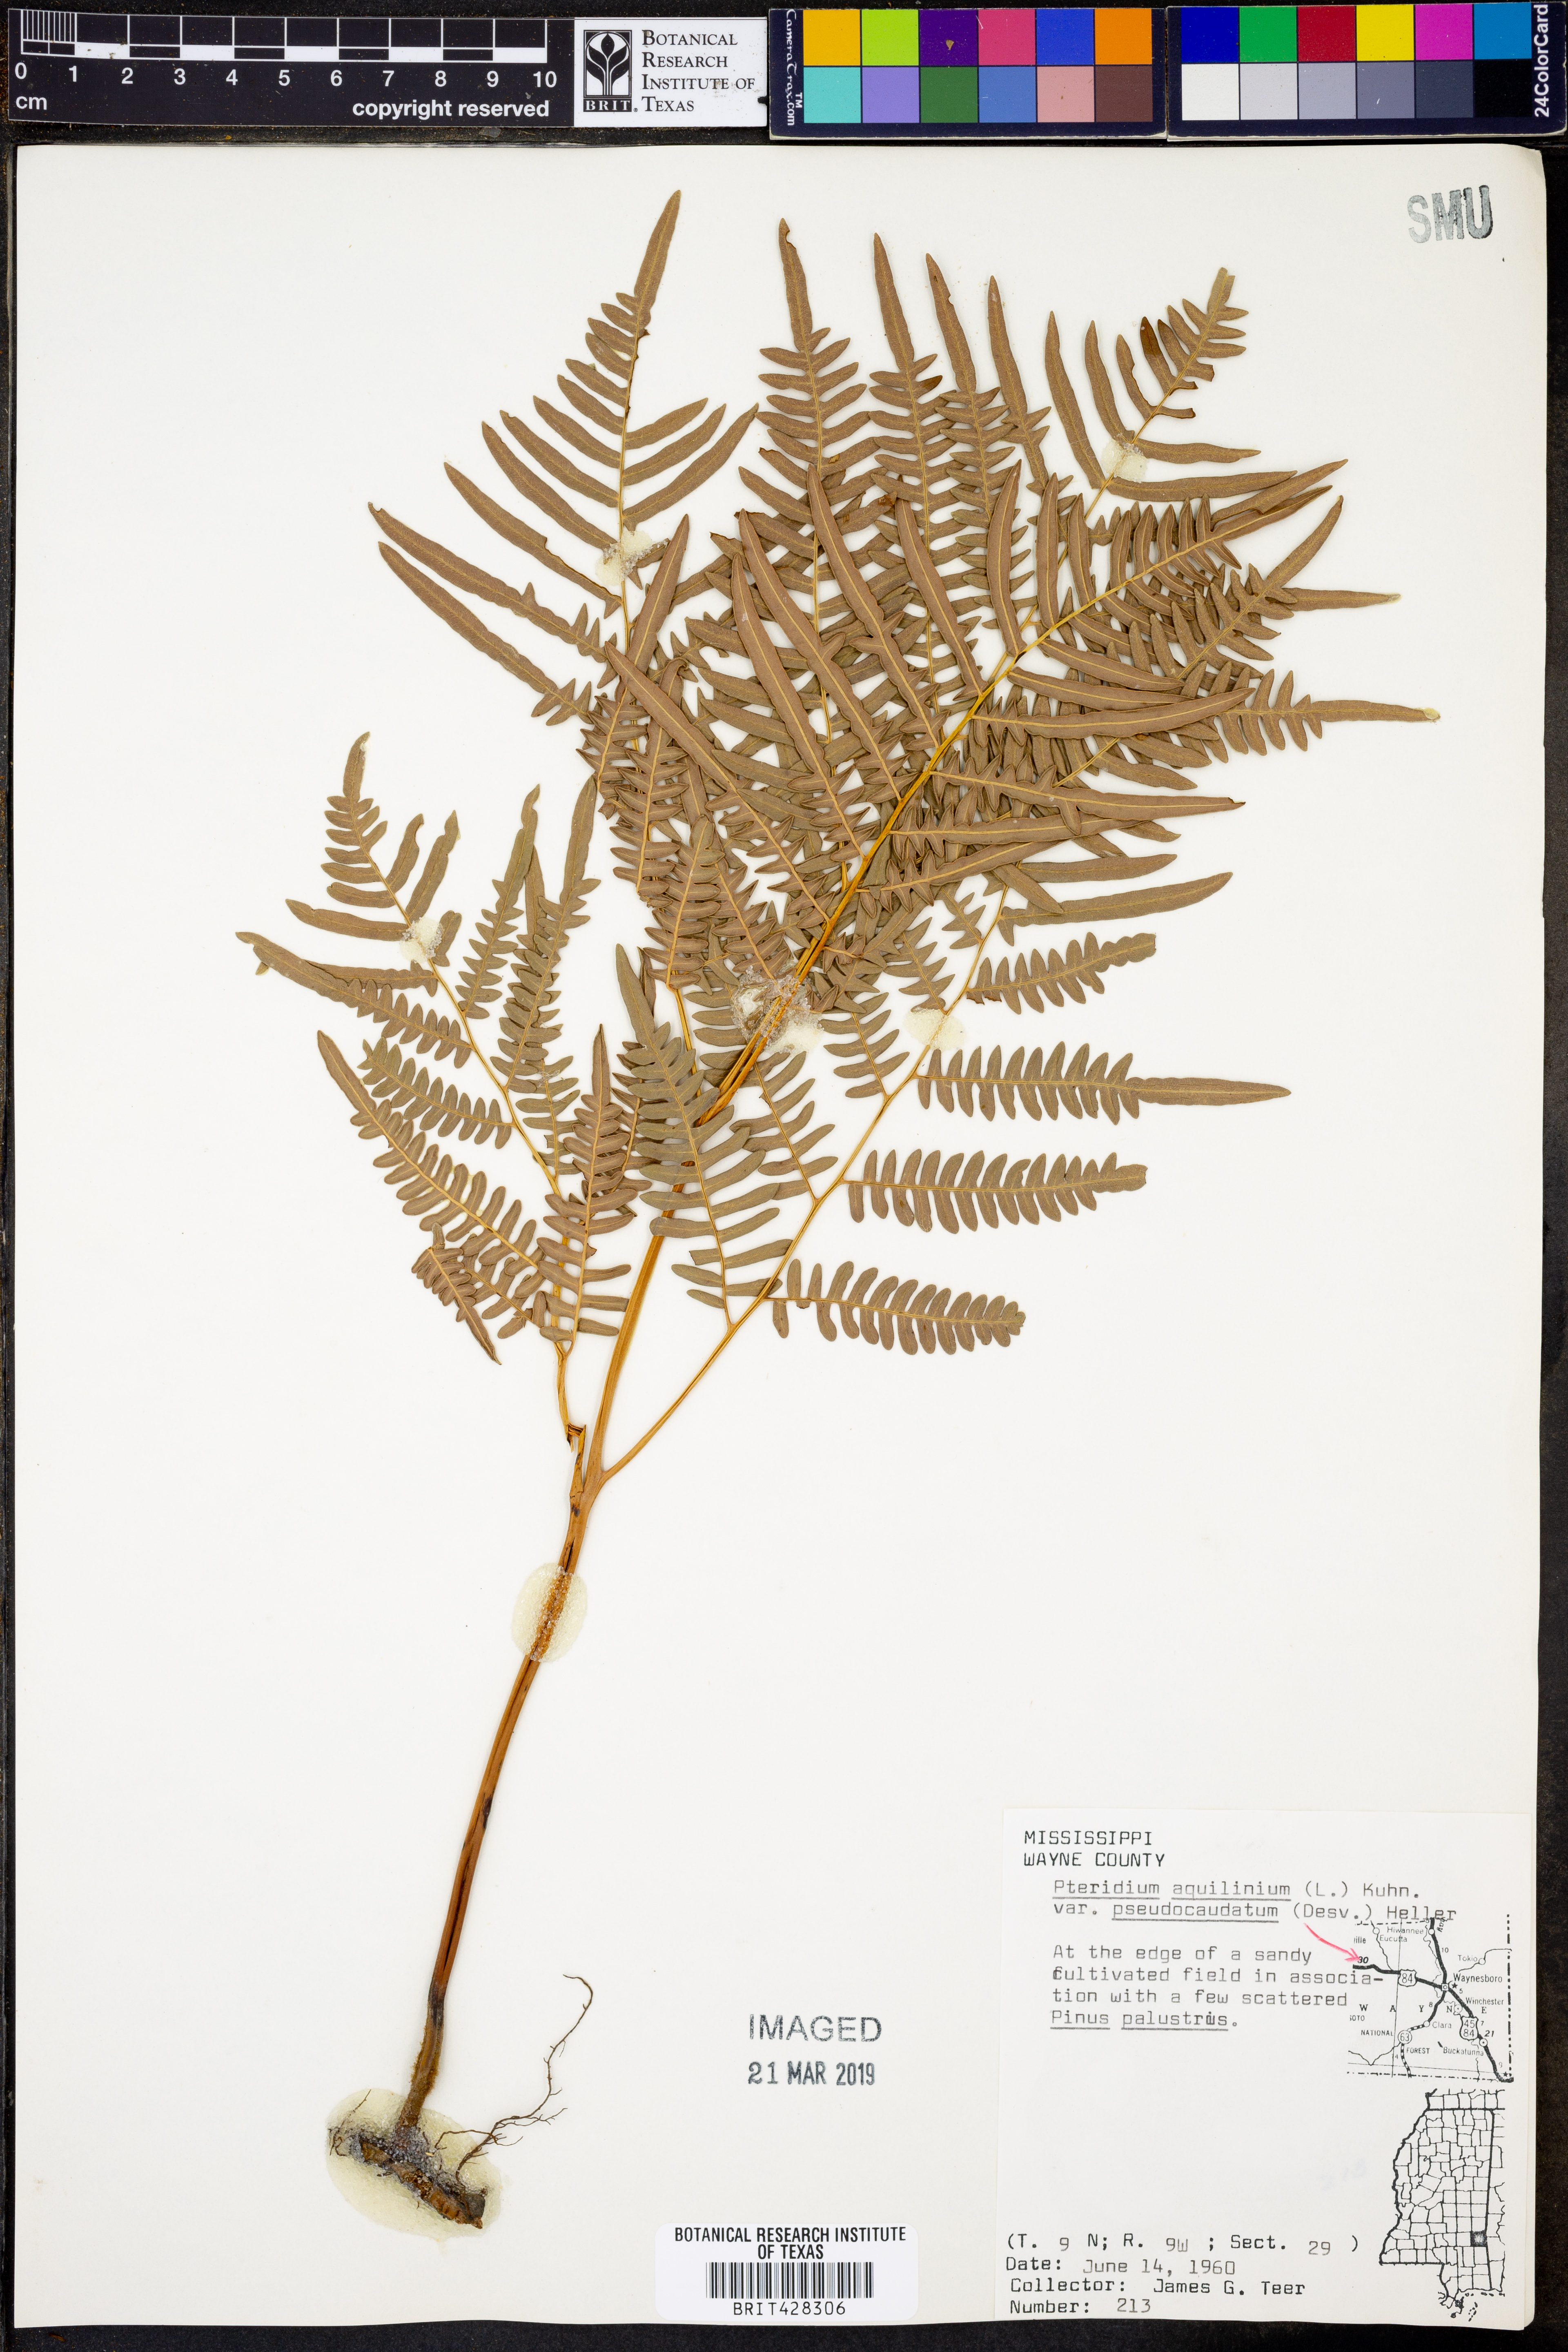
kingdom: Plantae
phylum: Tracheophyta
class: Polypodiopsida
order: Polypodiales
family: Dennstaedtiaceae
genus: Pteridium
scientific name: Pteridium aquilinum
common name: Bracken
